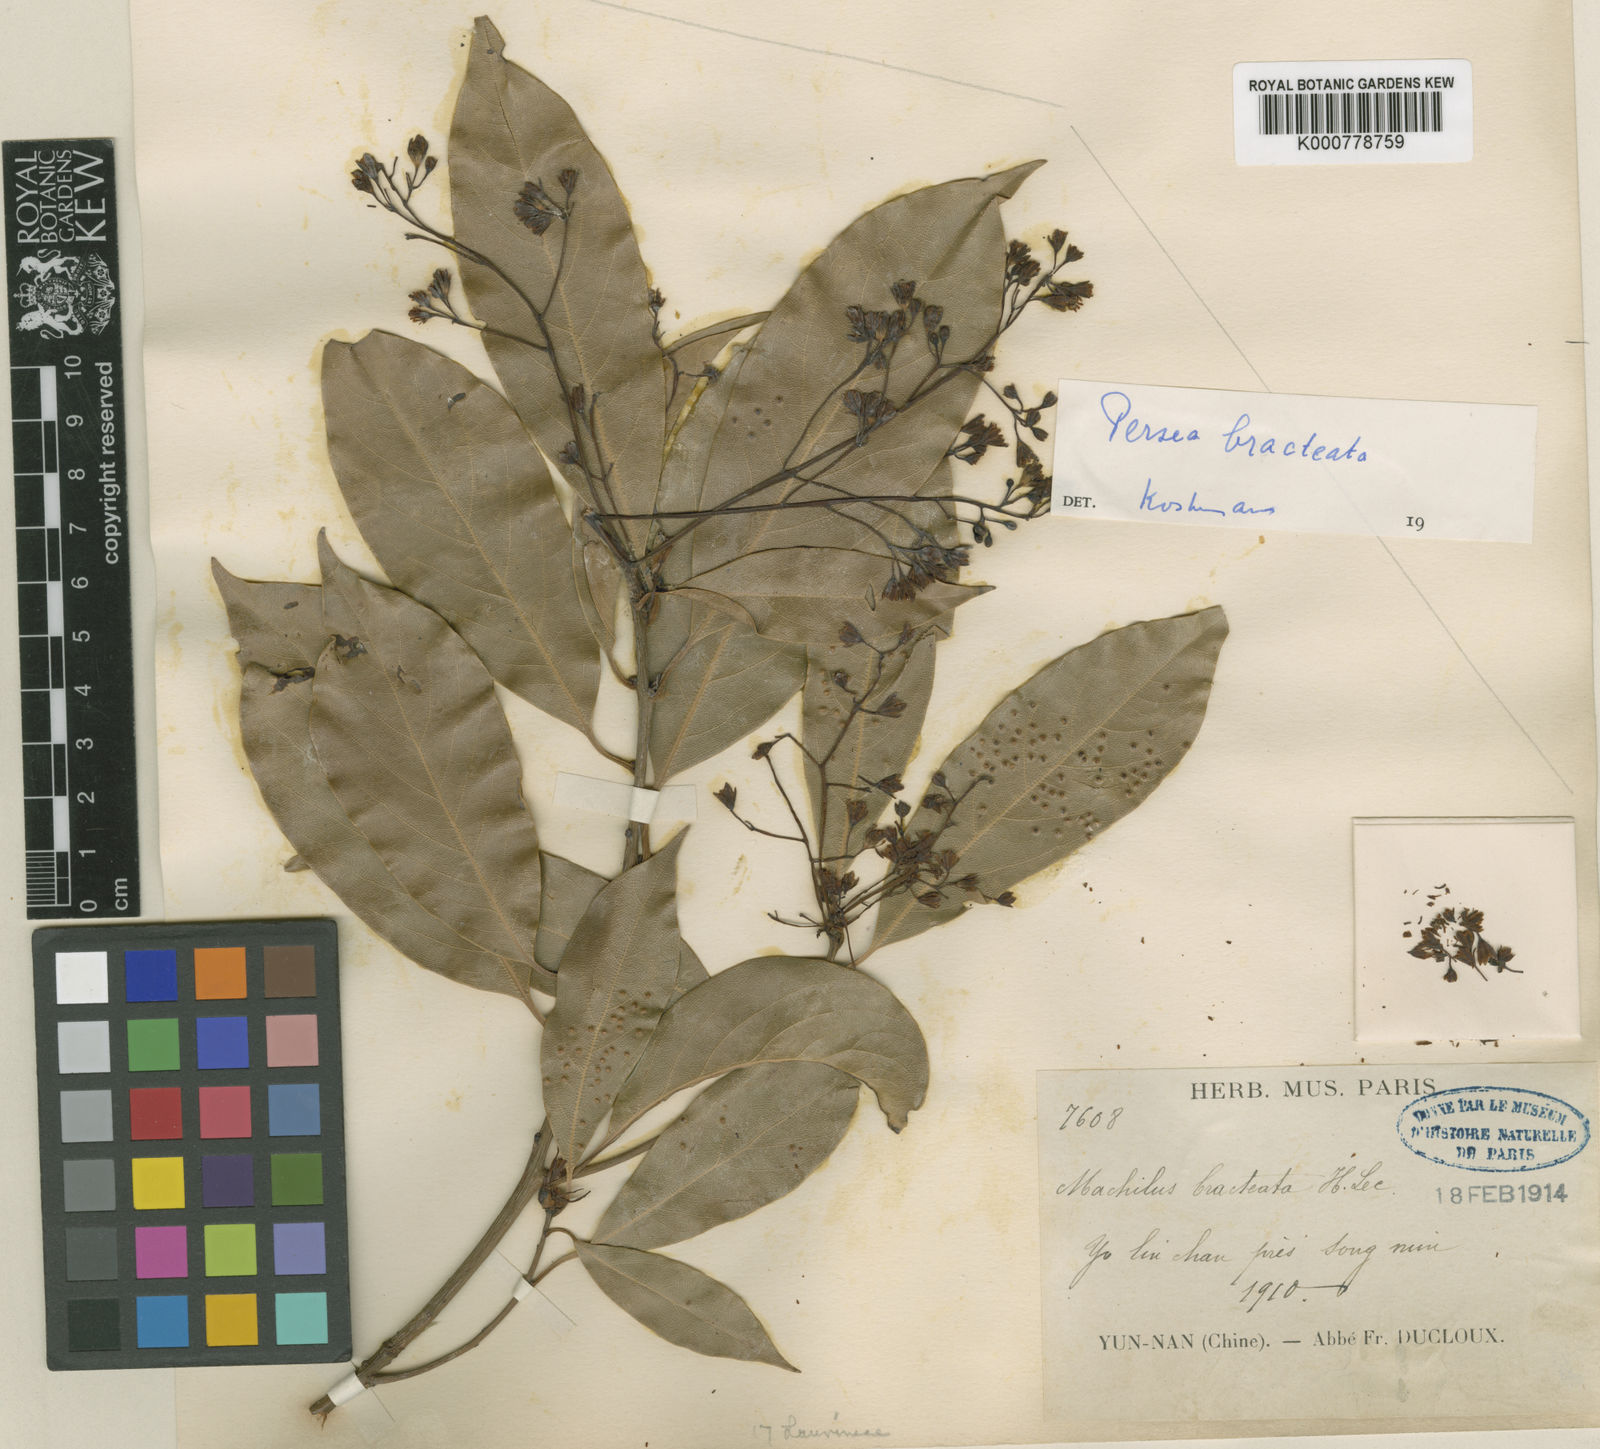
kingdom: Plantae
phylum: Tracheophyta
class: Magnoliopsida
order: Laurales
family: Lauraceae
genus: Machilus
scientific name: Machilus yunnanensis
